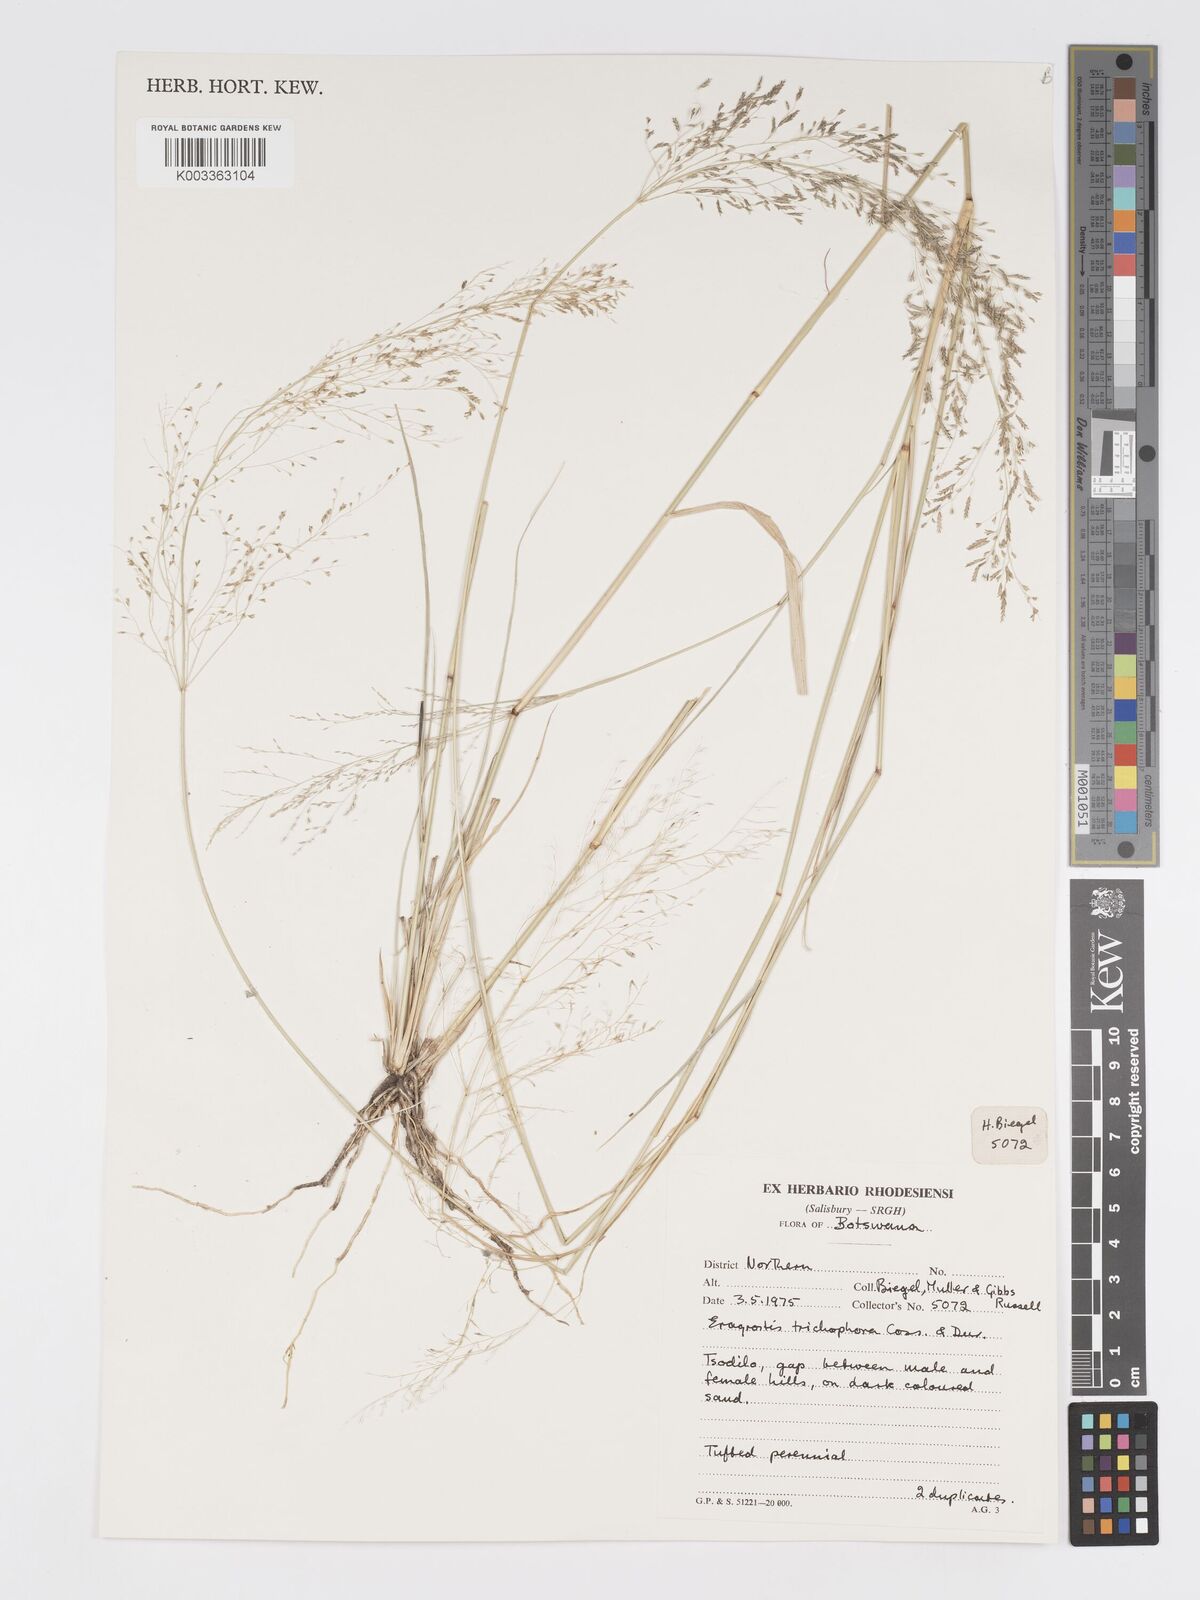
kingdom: Plantae
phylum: Tracheophyta
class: Liliopsida
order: Poales
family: Poaceae
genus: Eragrostis
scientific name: Eragrostis cylindriflora
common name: Cylinderflower lovegrass
